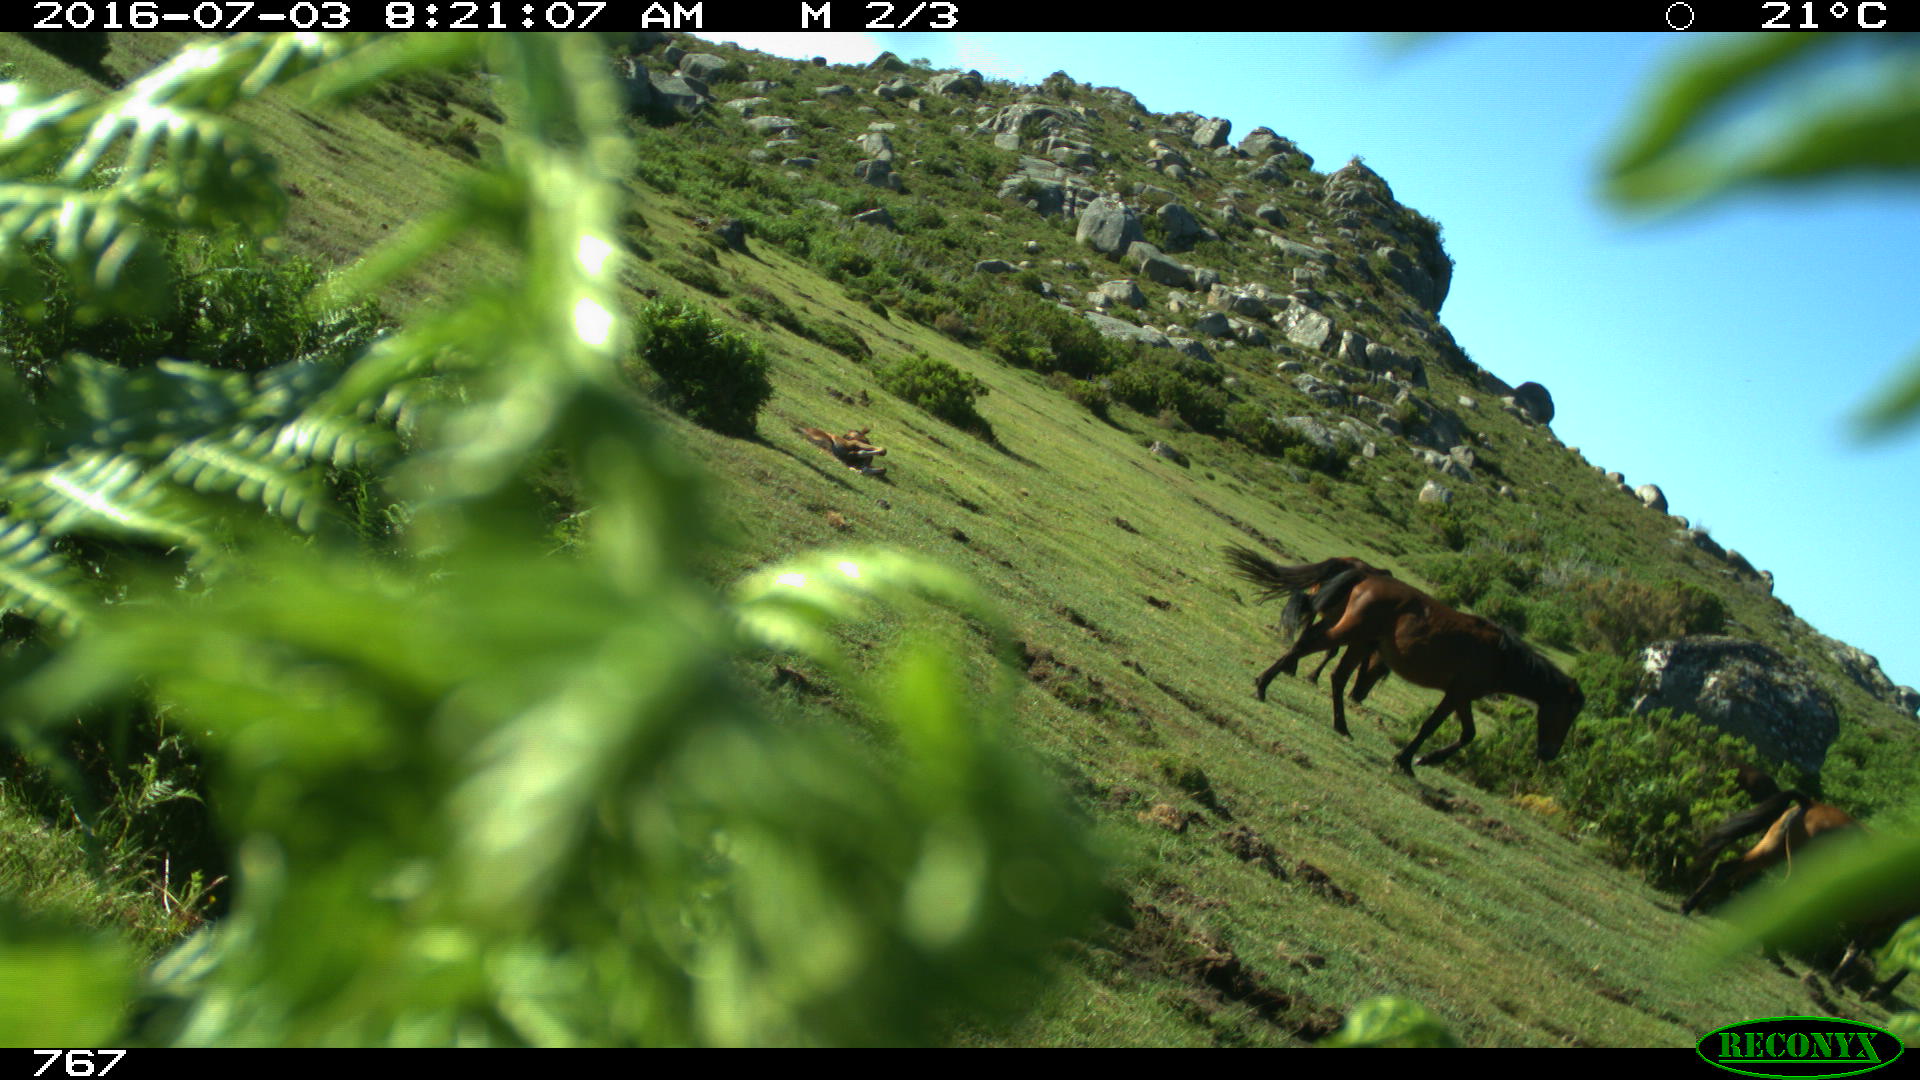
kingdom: Animalia
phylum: Chordata
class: Mammalia
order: Perissodactyla
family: Equidae
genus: Equus
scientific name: Equus caballus
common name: Horse
